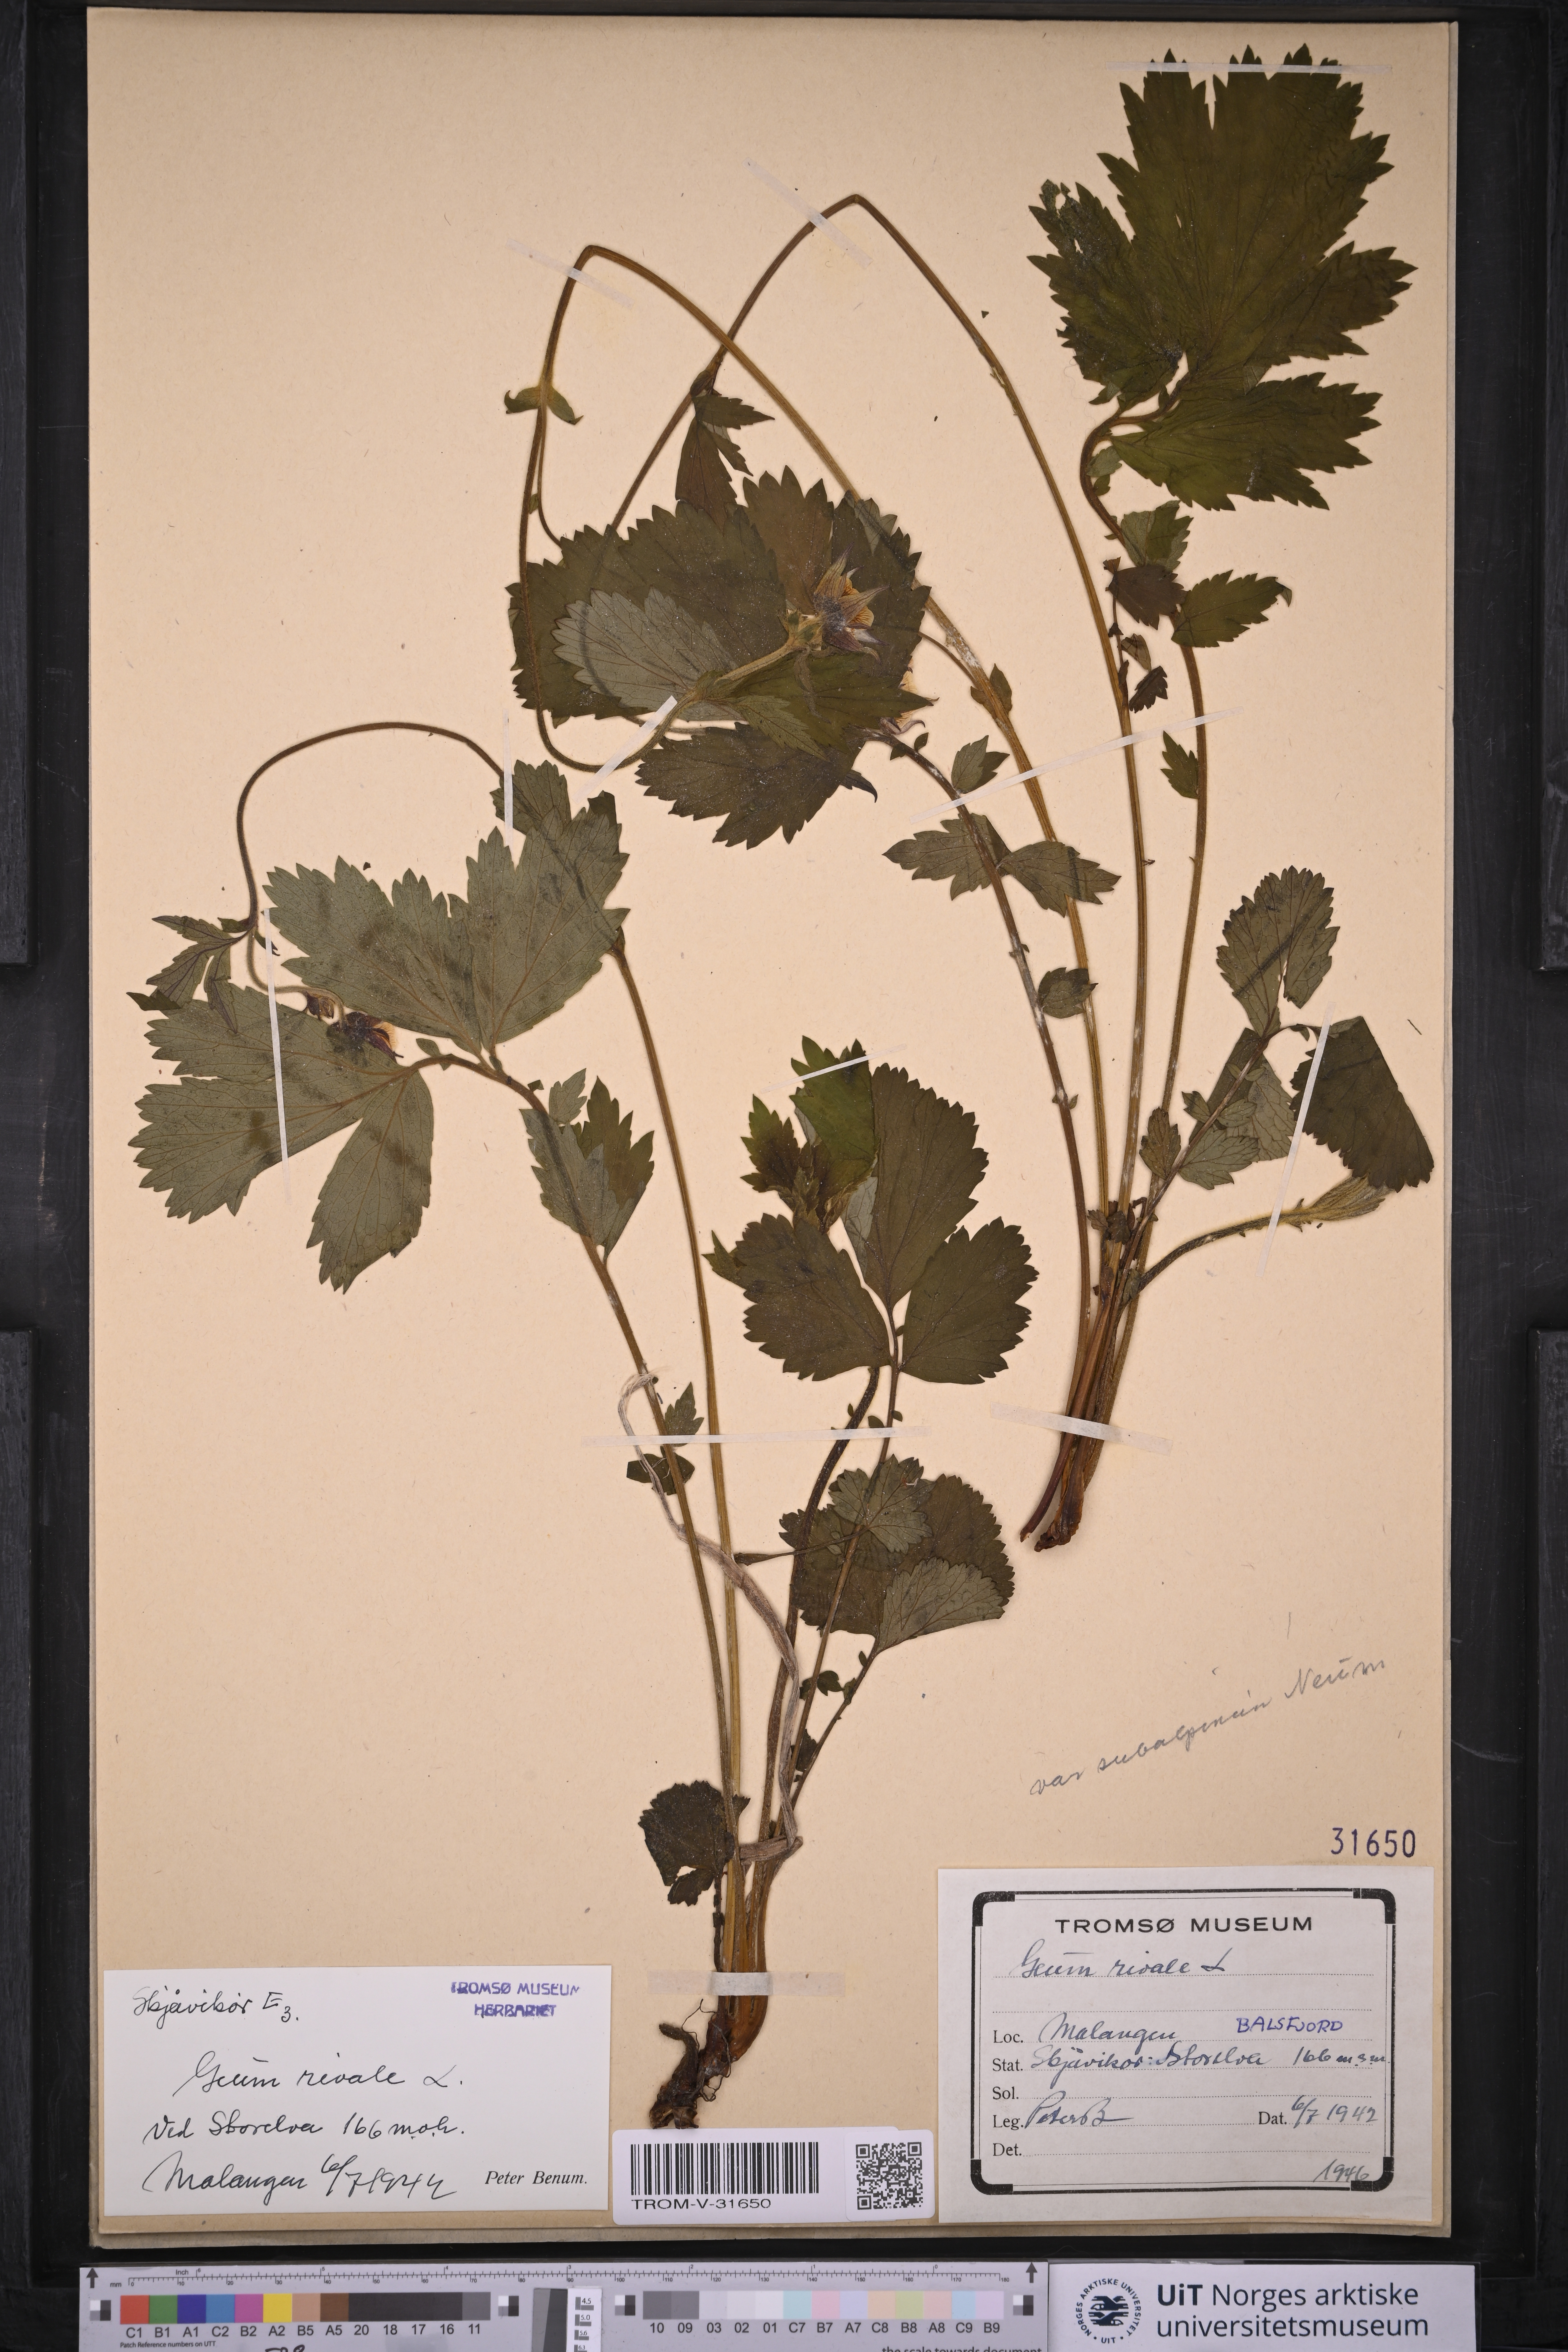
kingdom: Plantae
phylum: Tracheophyta
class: Magnoliopsida
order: Rosales
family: Rosaceae
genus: Geum
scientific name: Geum rivale
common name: Water avens
